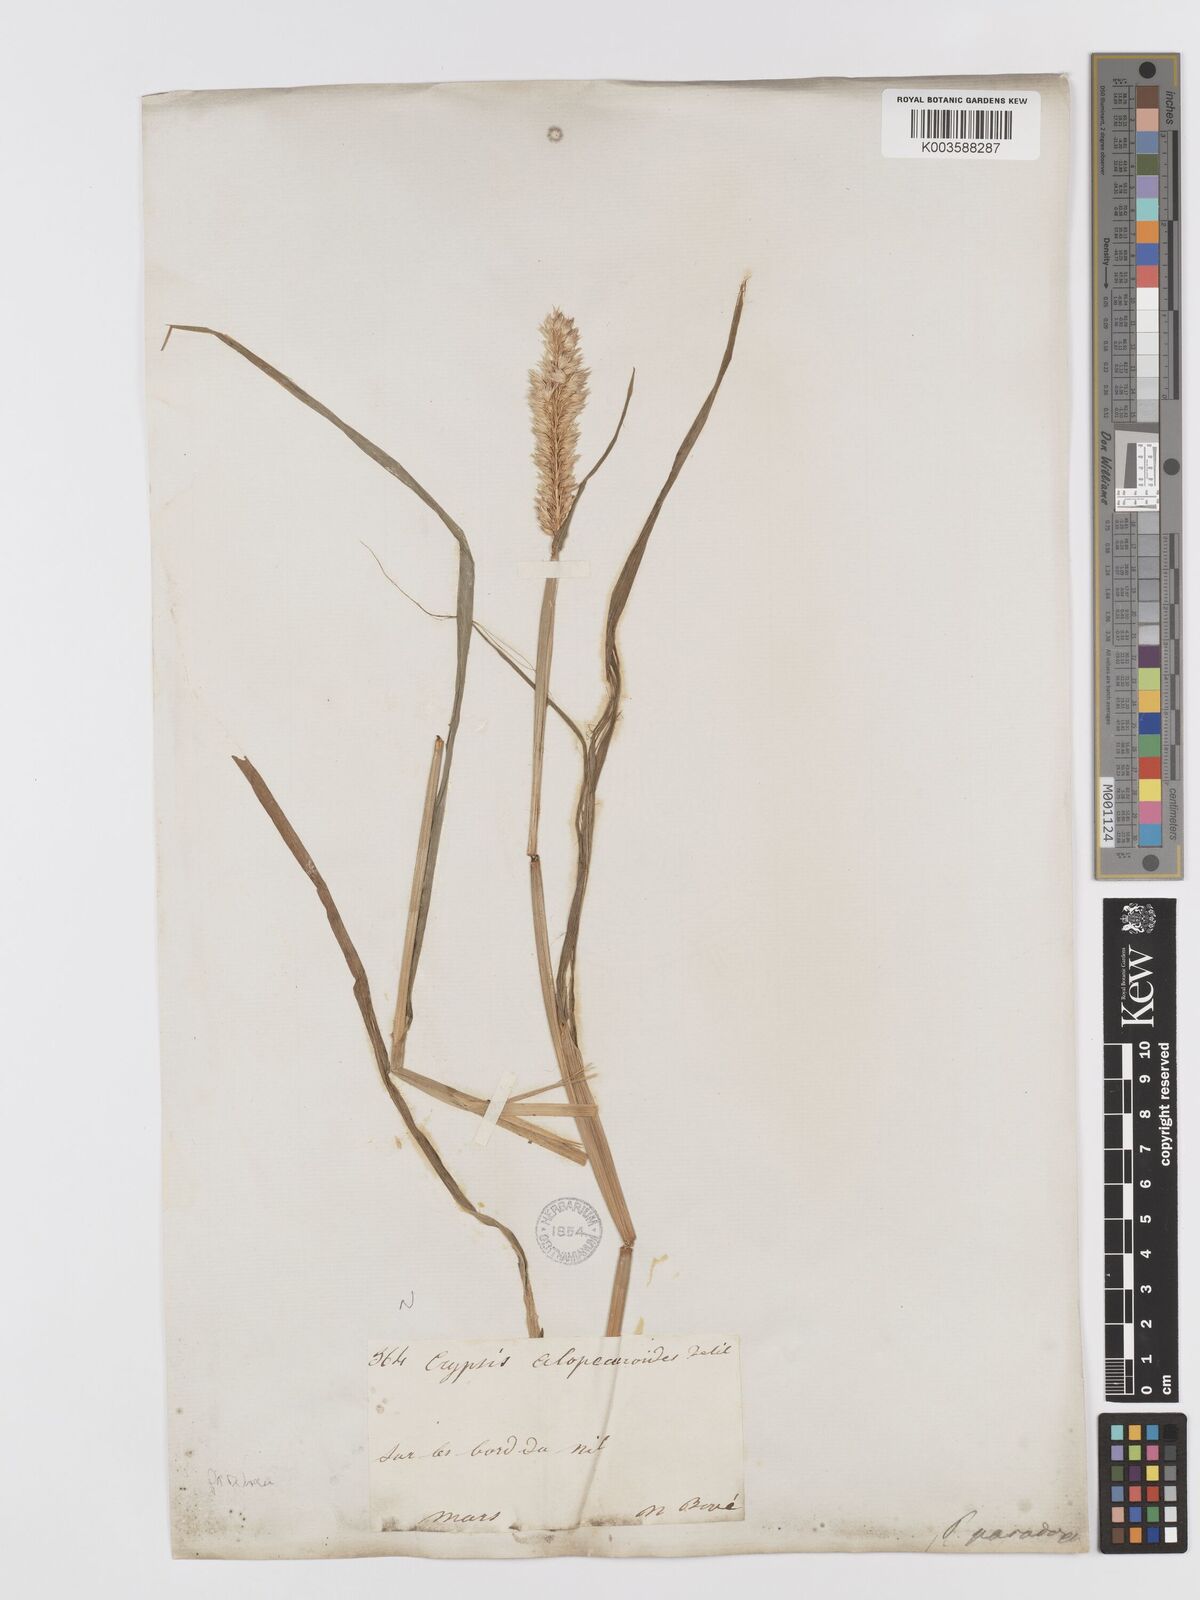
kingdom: Plantae
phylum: Tracheophyta
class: Liliopsida
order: Poales
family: Poaceae
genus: Phalaris
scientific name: Phalaris paradoxa
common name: Awned canary-grass
